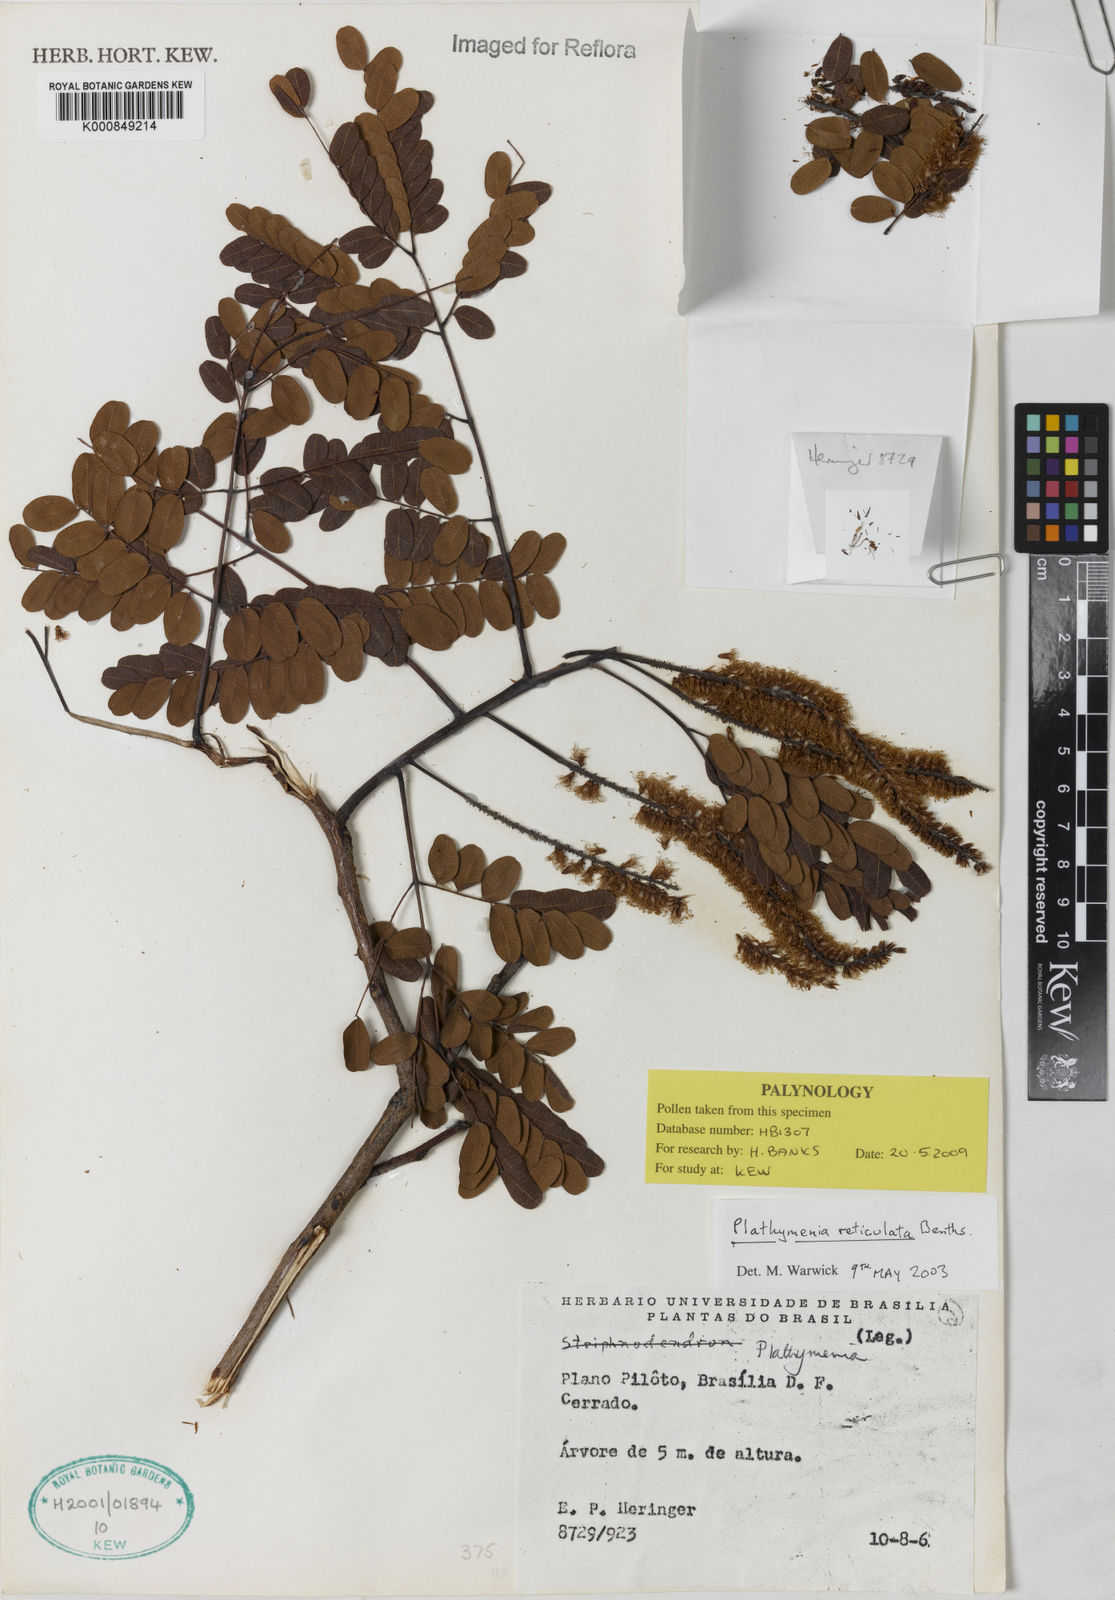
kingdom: Plantae
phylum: Tracheophyta
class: Magnoliopsida
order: Fabales
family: Fabaceae
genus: Plathymenia
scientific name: Plathymenia reticulata
